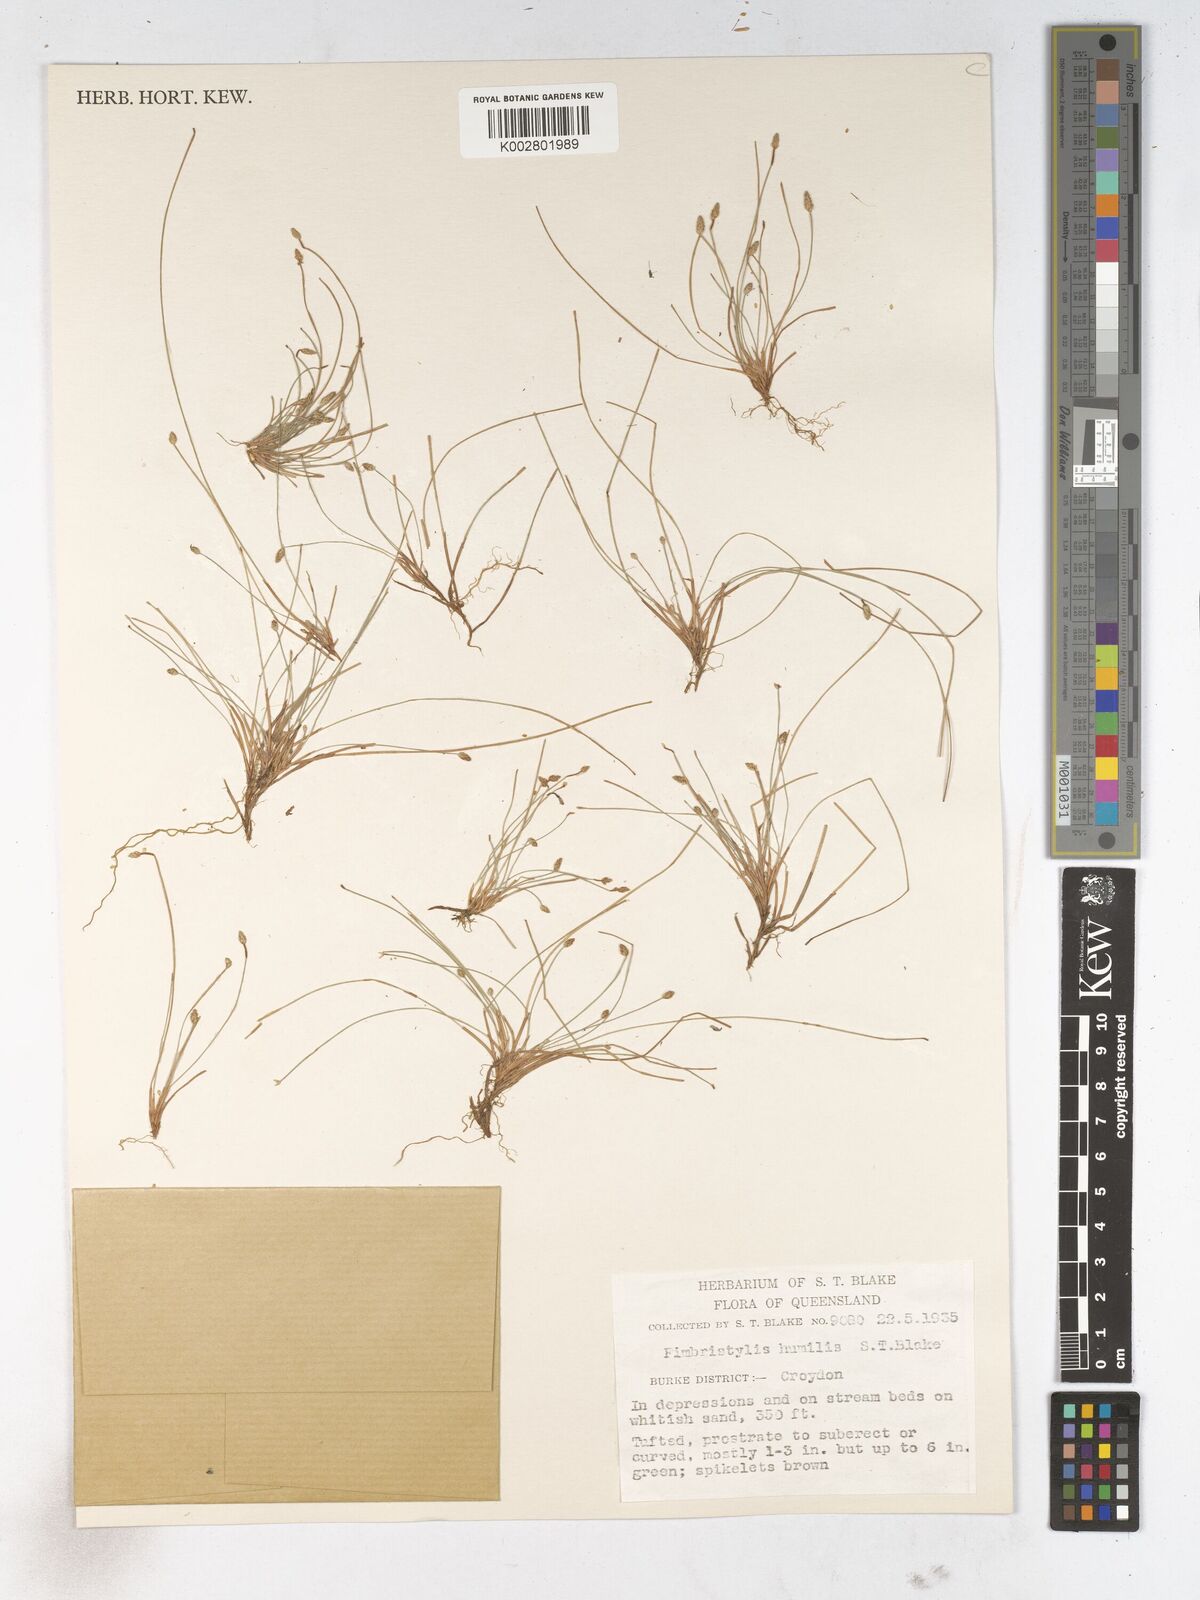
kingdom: Plantae
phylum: Tracheophyta
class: Liliopsida
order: Poales
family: Cyperaceae
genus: Fimbristylis
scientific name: Fimbristylis nuda
